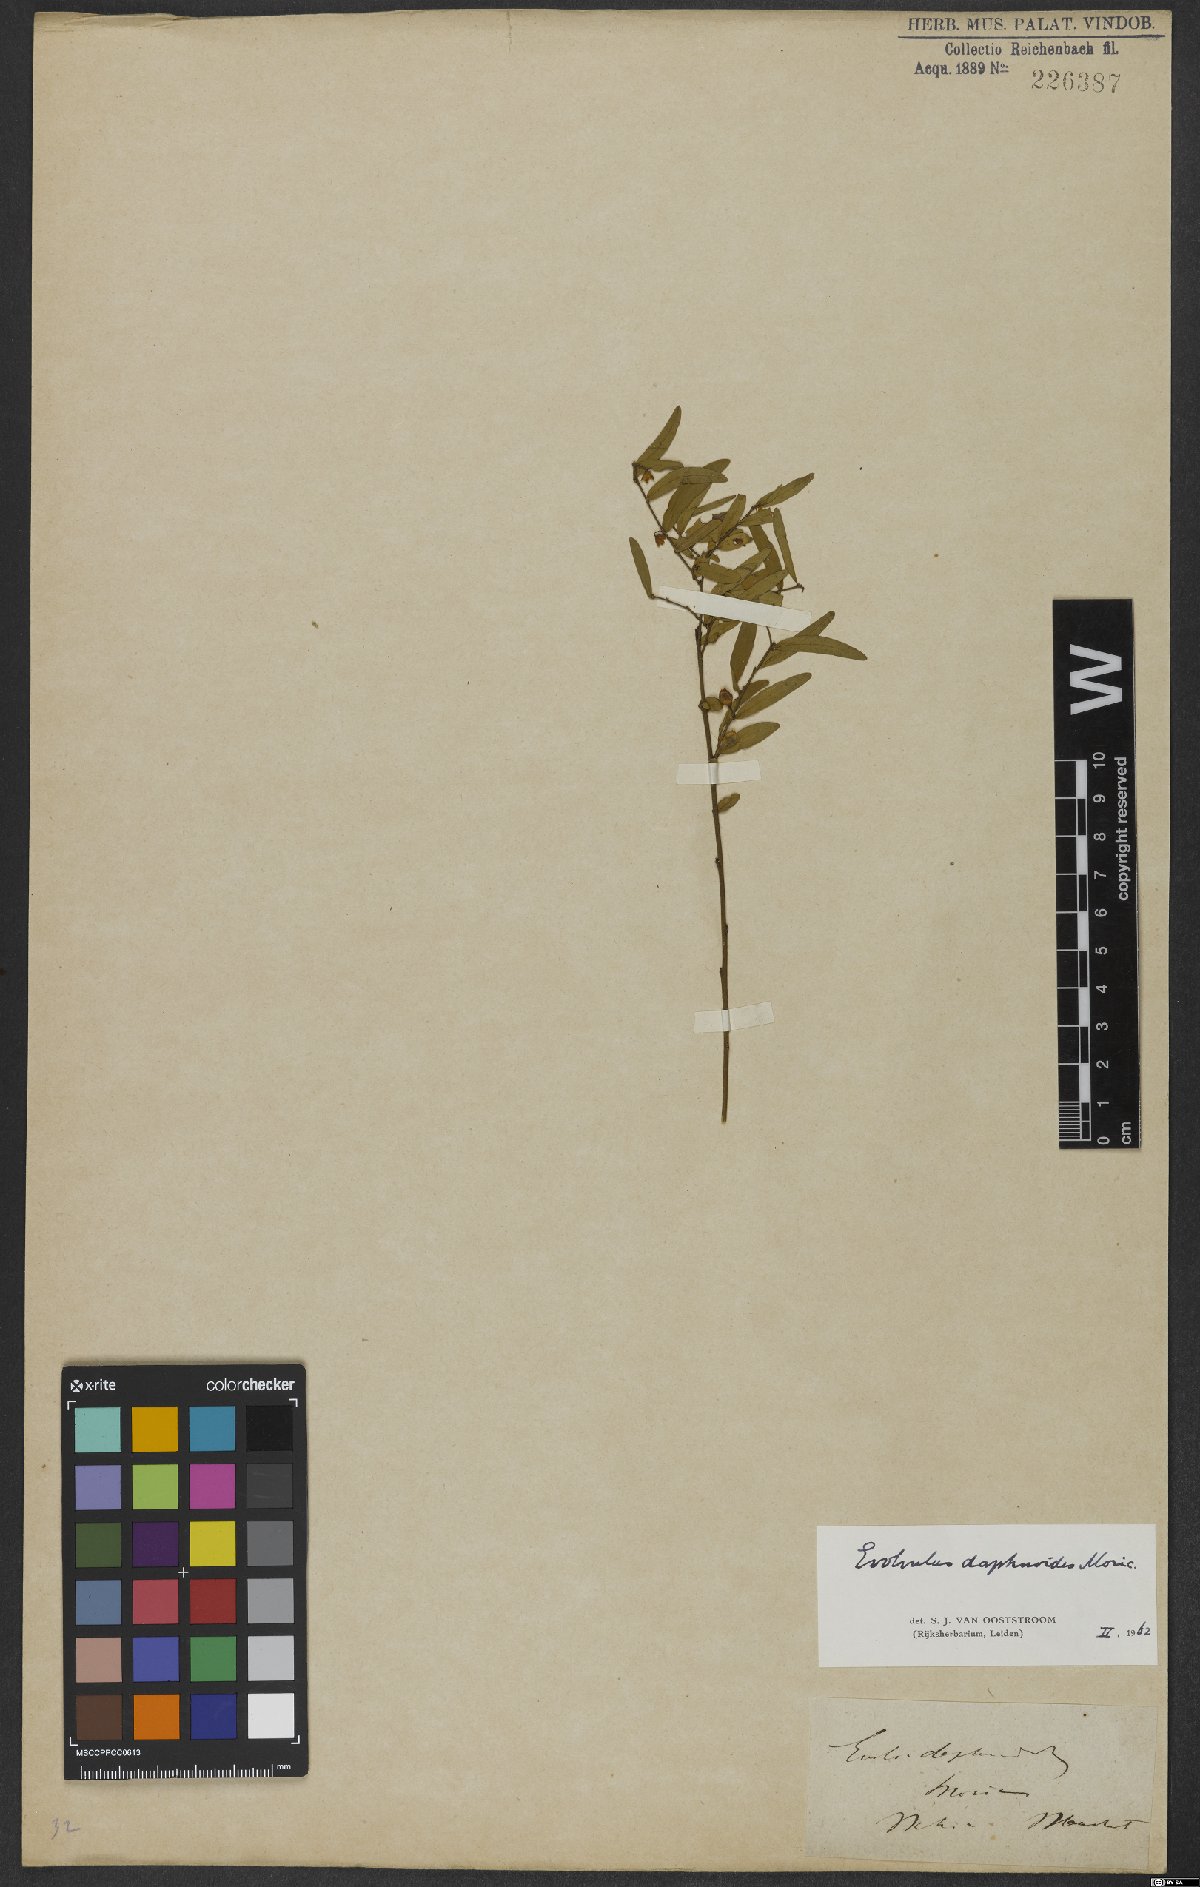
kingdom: Plantae
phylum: Tracheophyta
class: Magnoliopsida
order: Solanales
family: Convolvulaceae
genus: Evolvulus
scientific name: Evolvulus daphnoides
